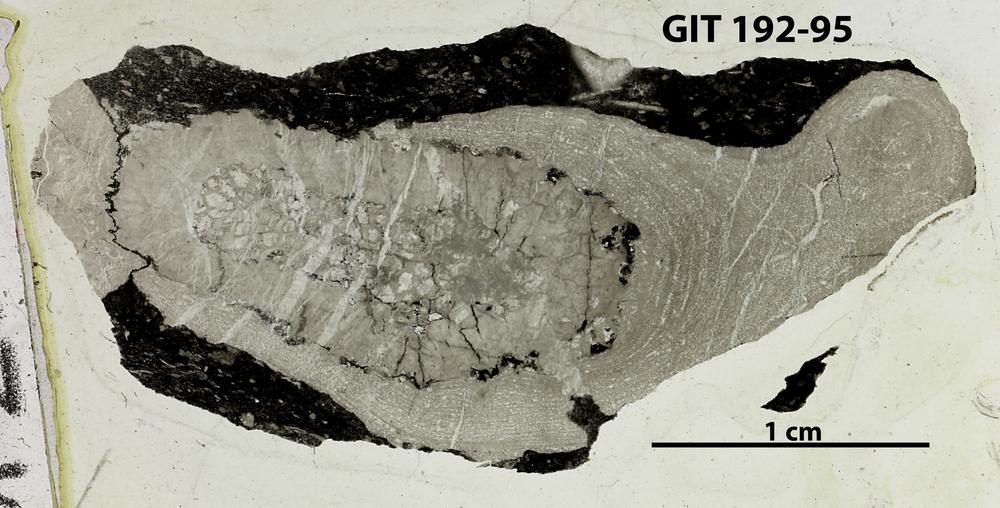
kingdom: Animalia
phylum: Porifera
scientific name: Porifera
